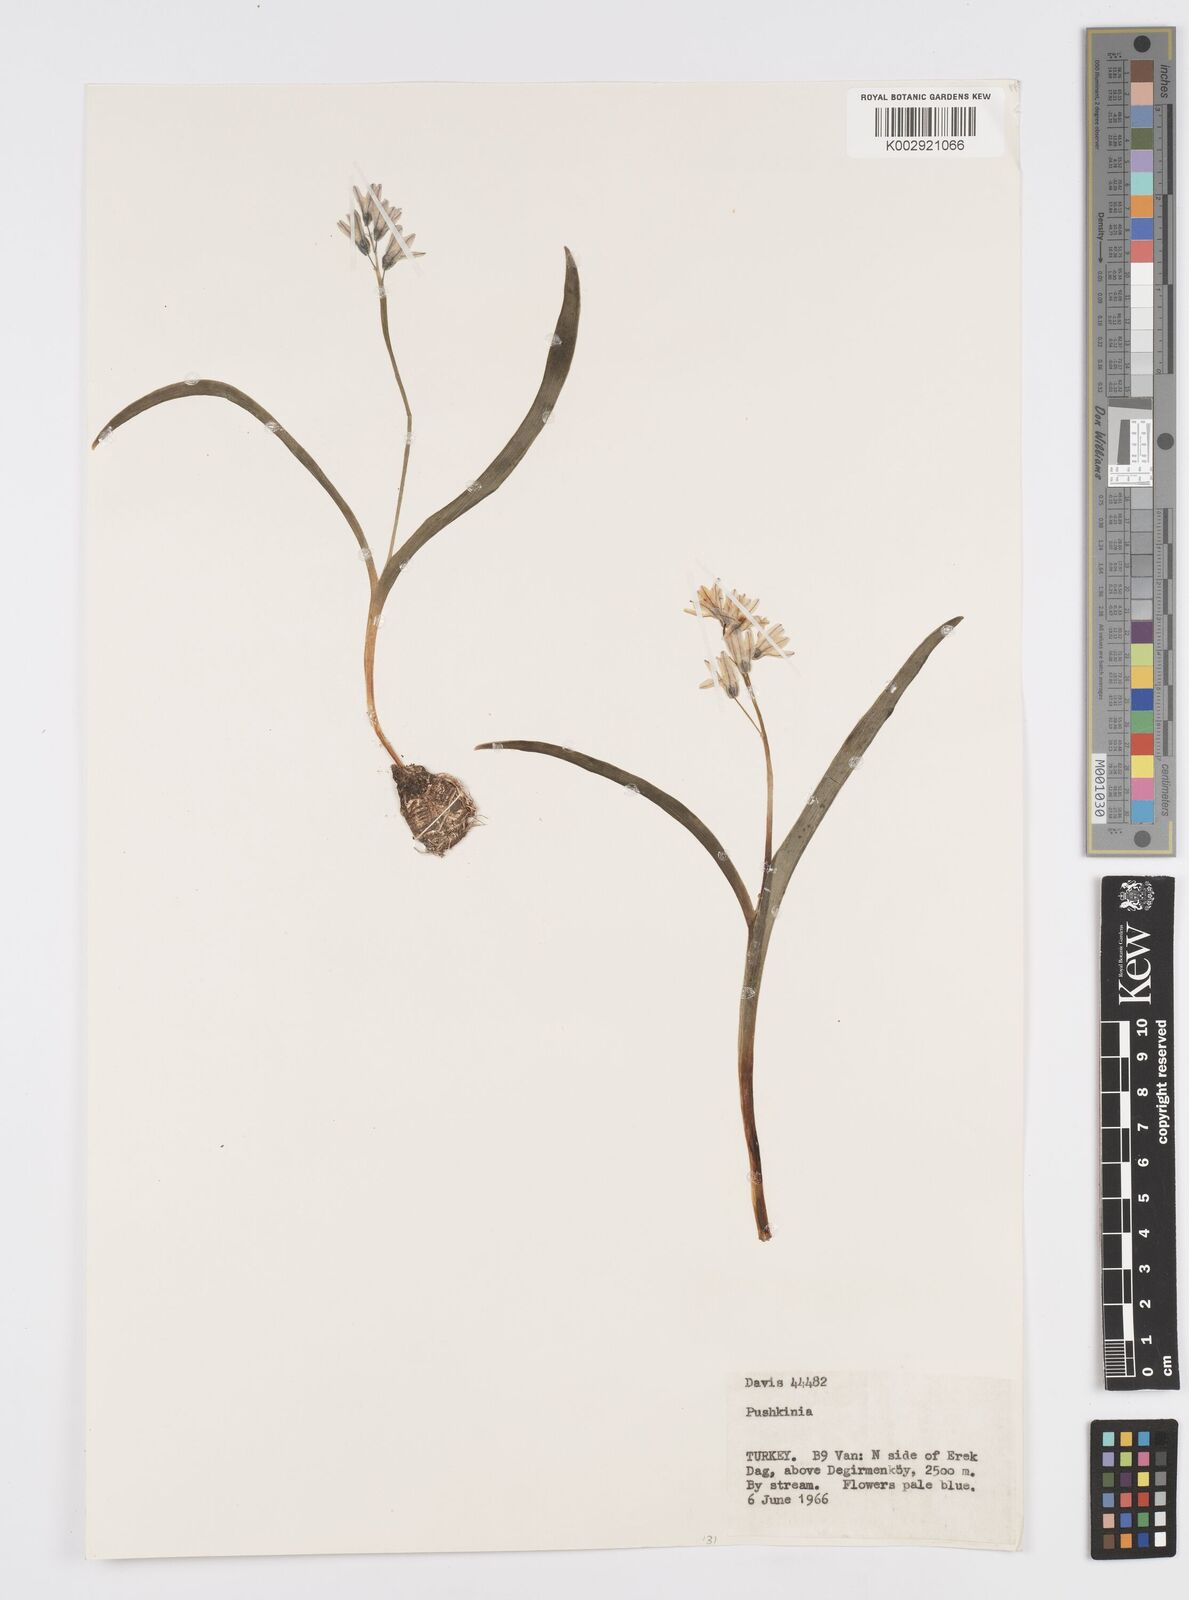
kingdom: Plantae
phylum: Tracheophyta
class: Liliopsida
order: Asparagales
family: Asparagaceae
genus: Puschkinia
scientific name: Puschkinia scilloides
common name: Striped squill
